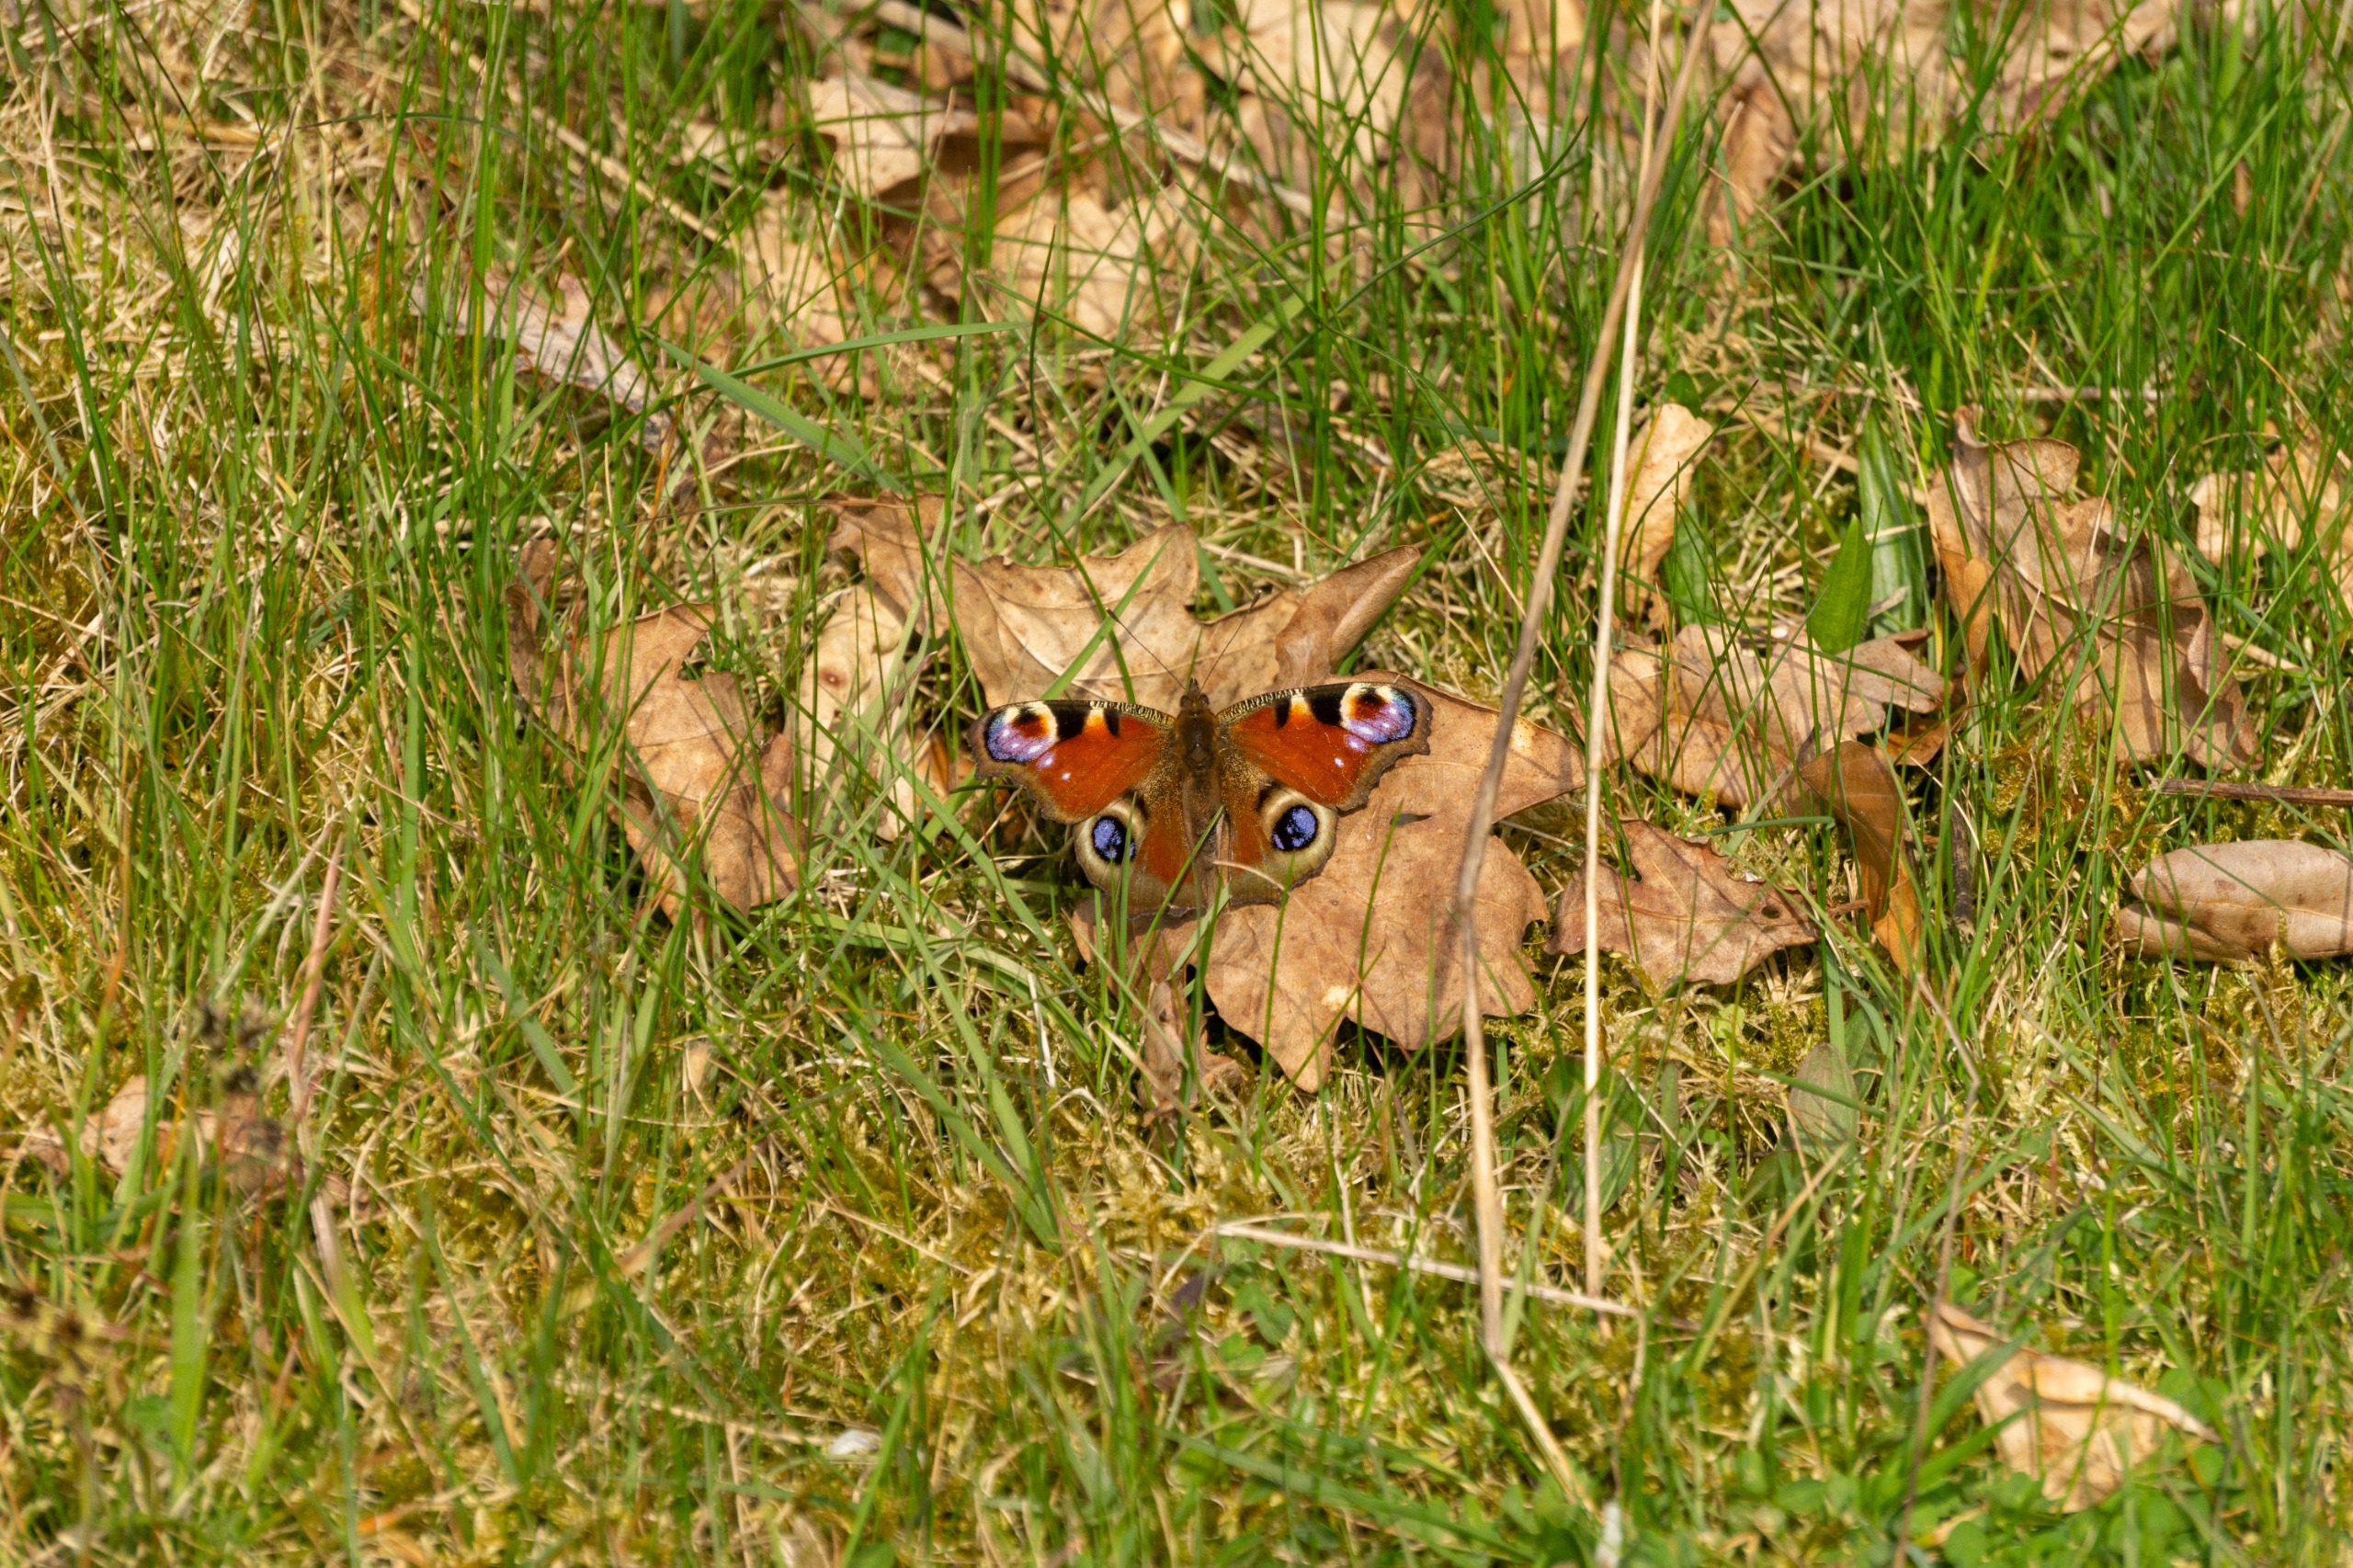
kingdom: Animalia
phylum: Arthropoda
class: Insecta
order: Lepidoptera
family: Nymphalidae
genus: Aglais
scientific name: Aglais io
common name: Dagpåfugleøje
